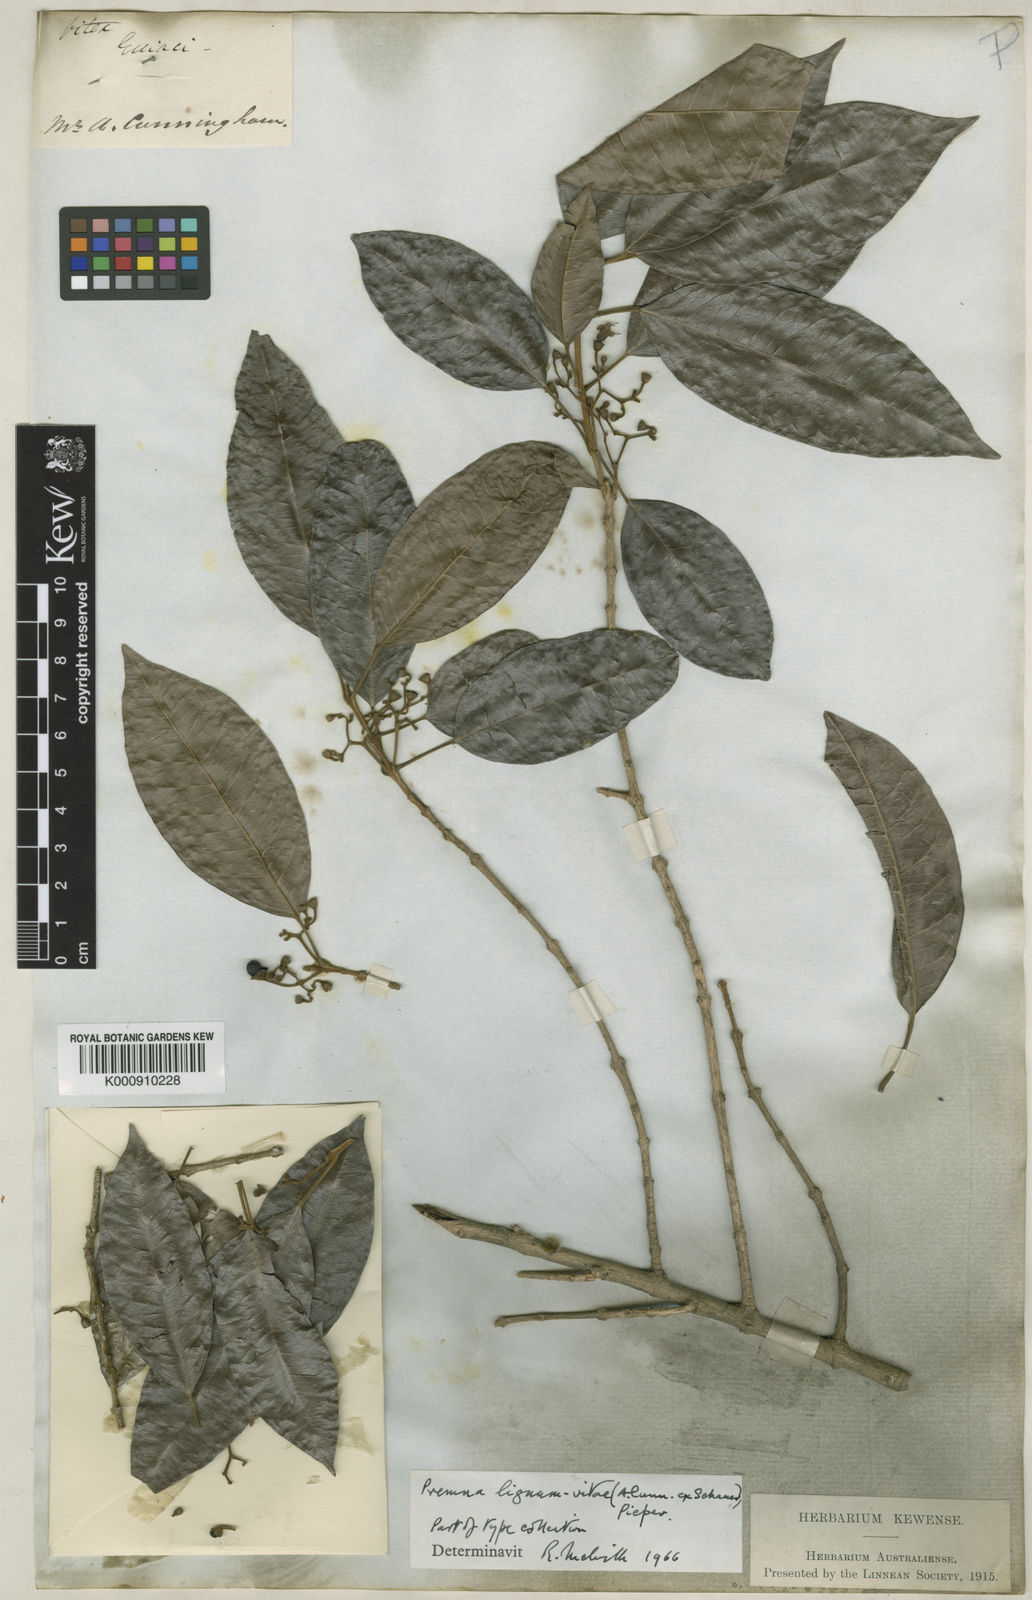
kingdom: Plantae
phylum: Tracheophyta
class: Magnoliopsida
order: Lamiales
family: Lamiaceae
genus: Vitex
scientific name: Vitex lignum-vitae
